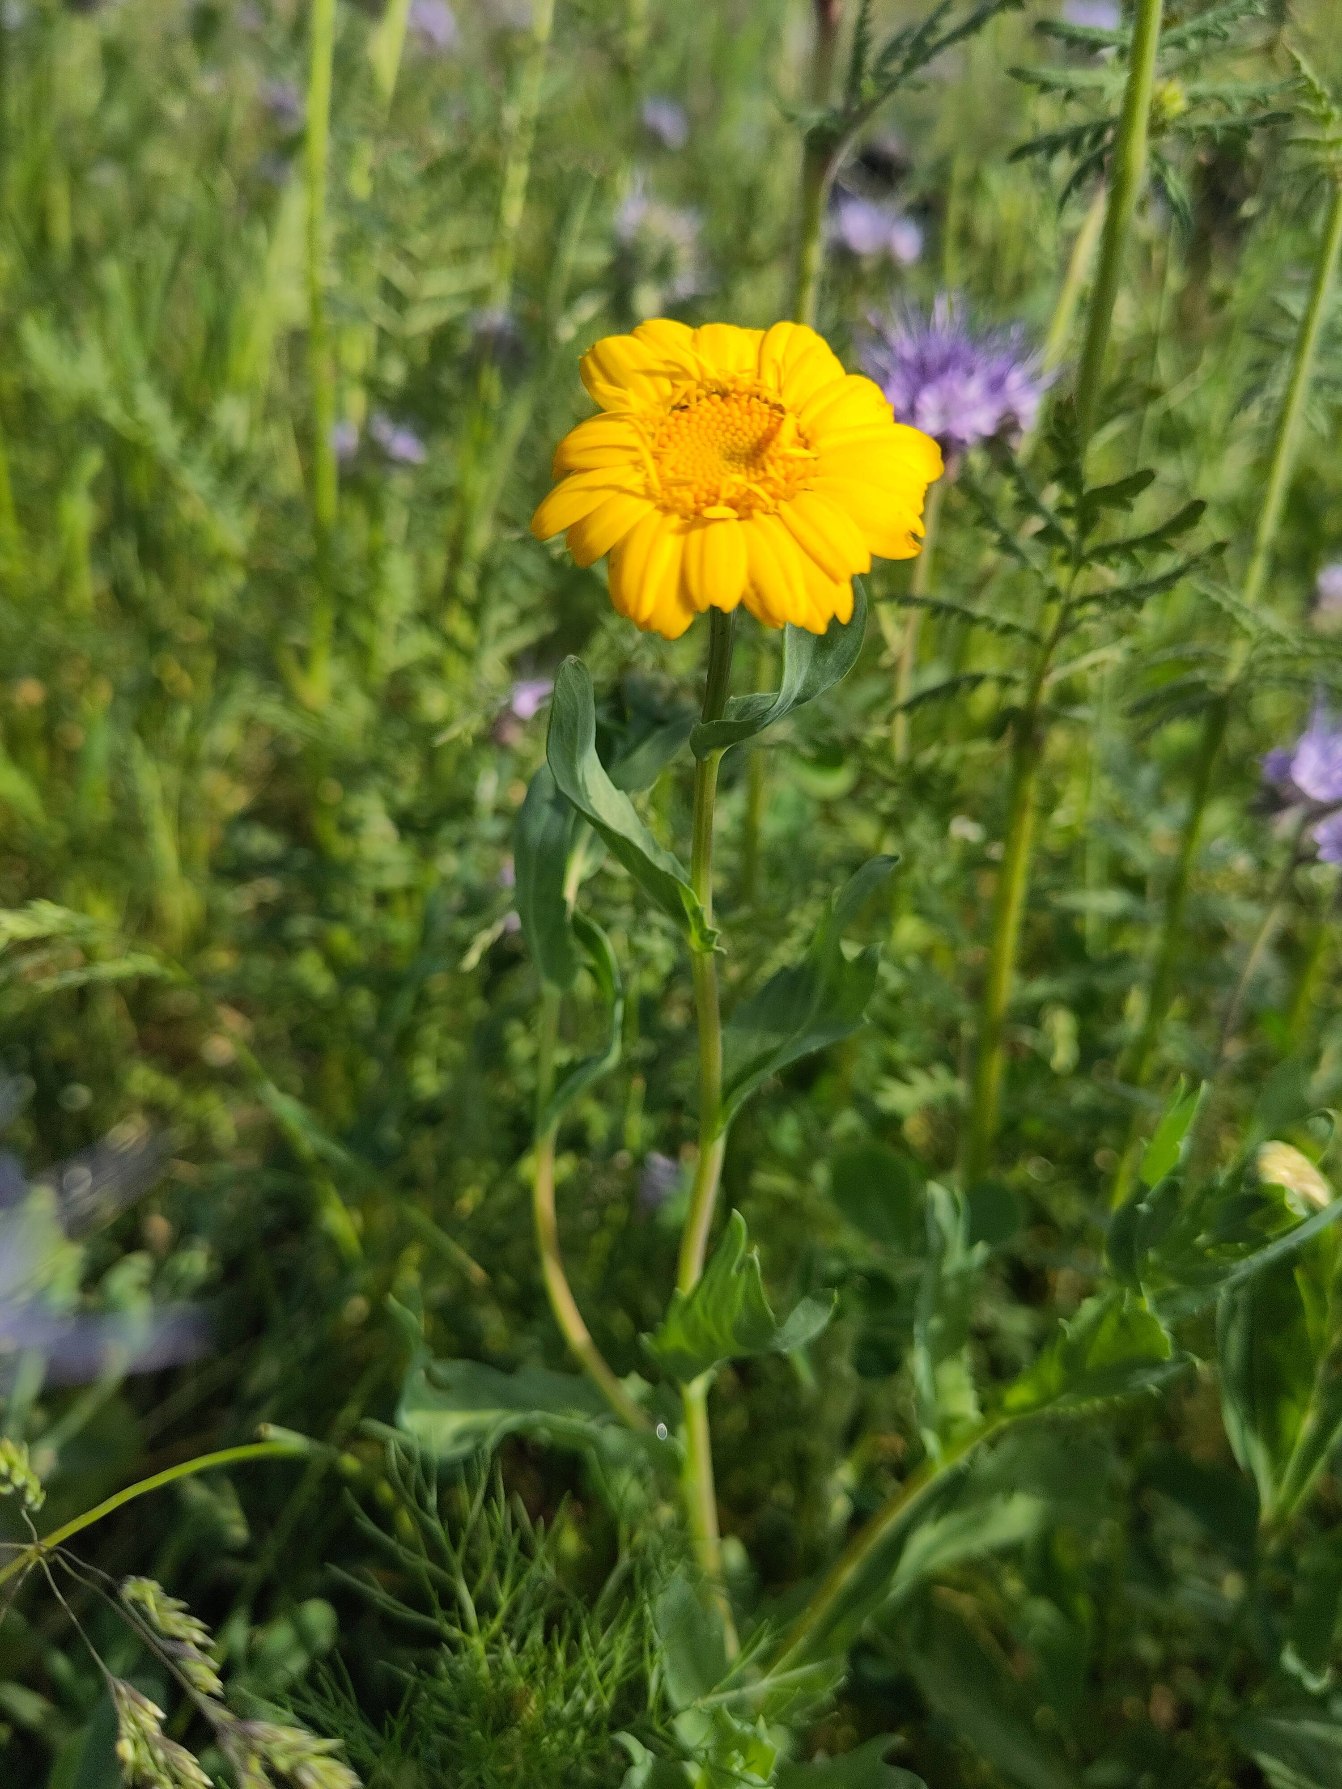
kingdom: Plantae
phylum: Tracheophyta
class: Magnoliopsida
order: Asterales
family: Asteraceae
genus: Glebionis
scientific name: Glebionis segetum
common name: Gul okseøje
